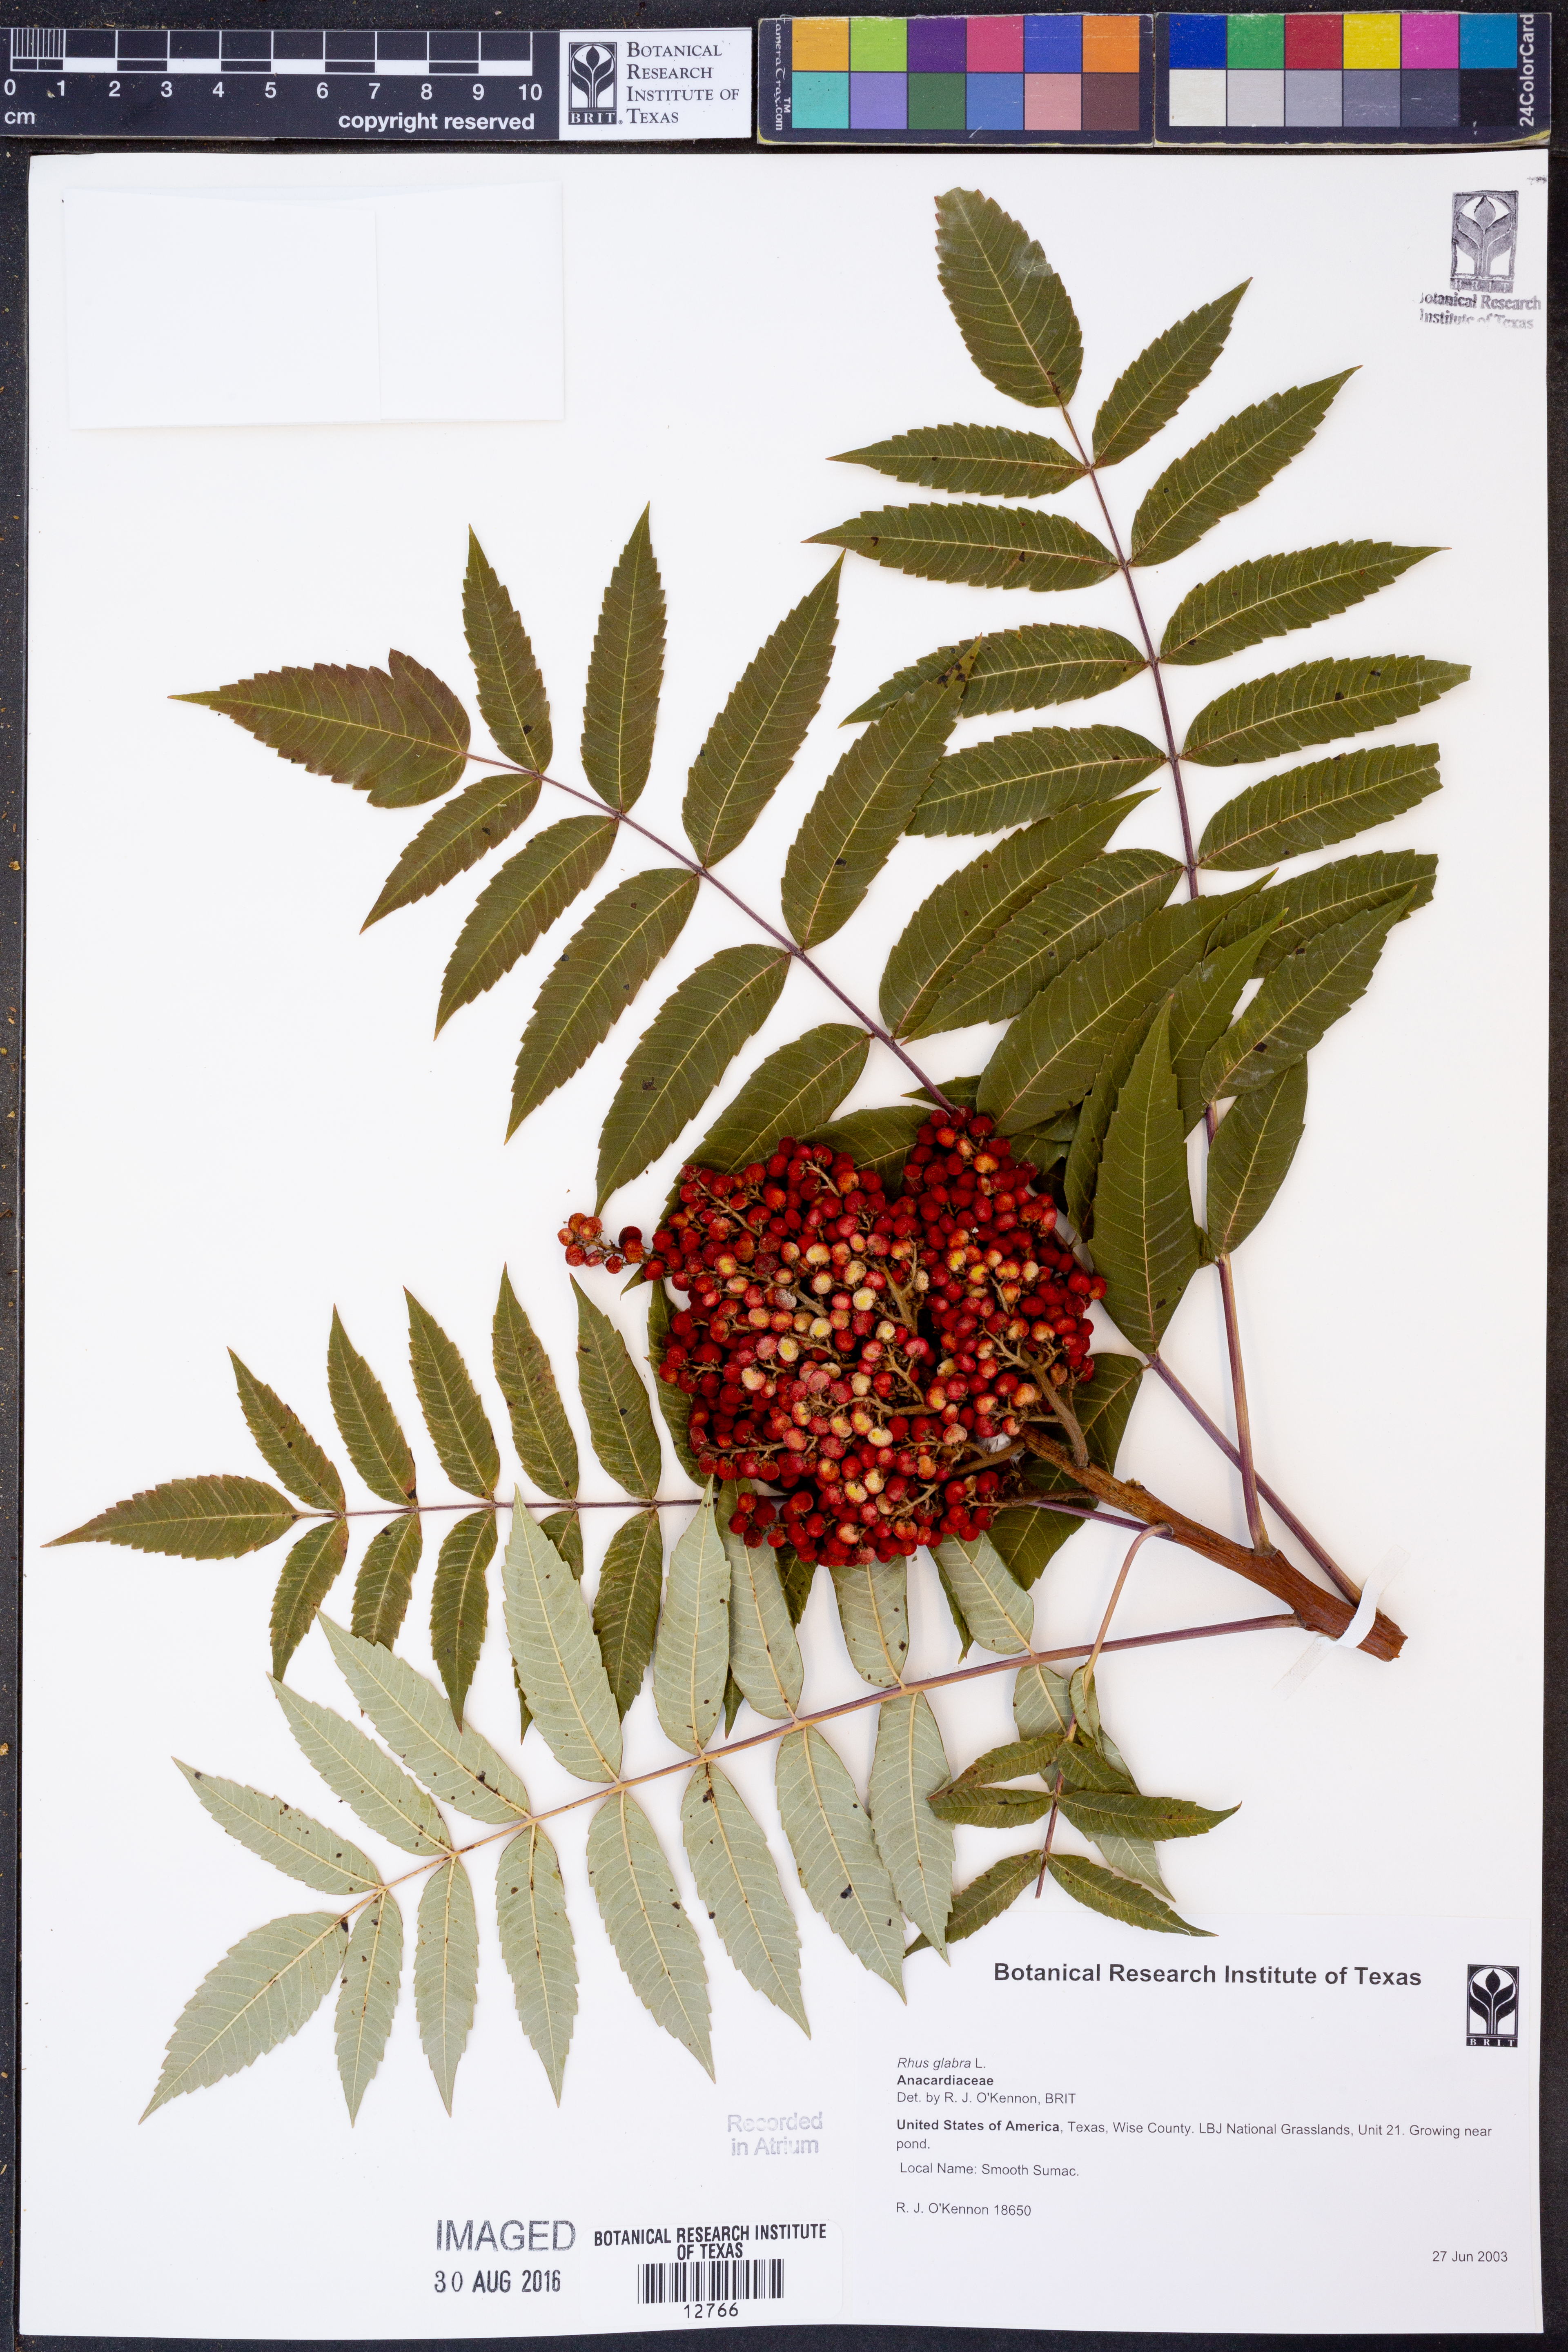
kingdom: Plantae
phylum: Tracheophyta
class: Magnoliopsida
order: Sapindales
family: Anacardiaceae
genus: Rhus
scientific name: Rhus glabra
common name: Scarlet sumac
